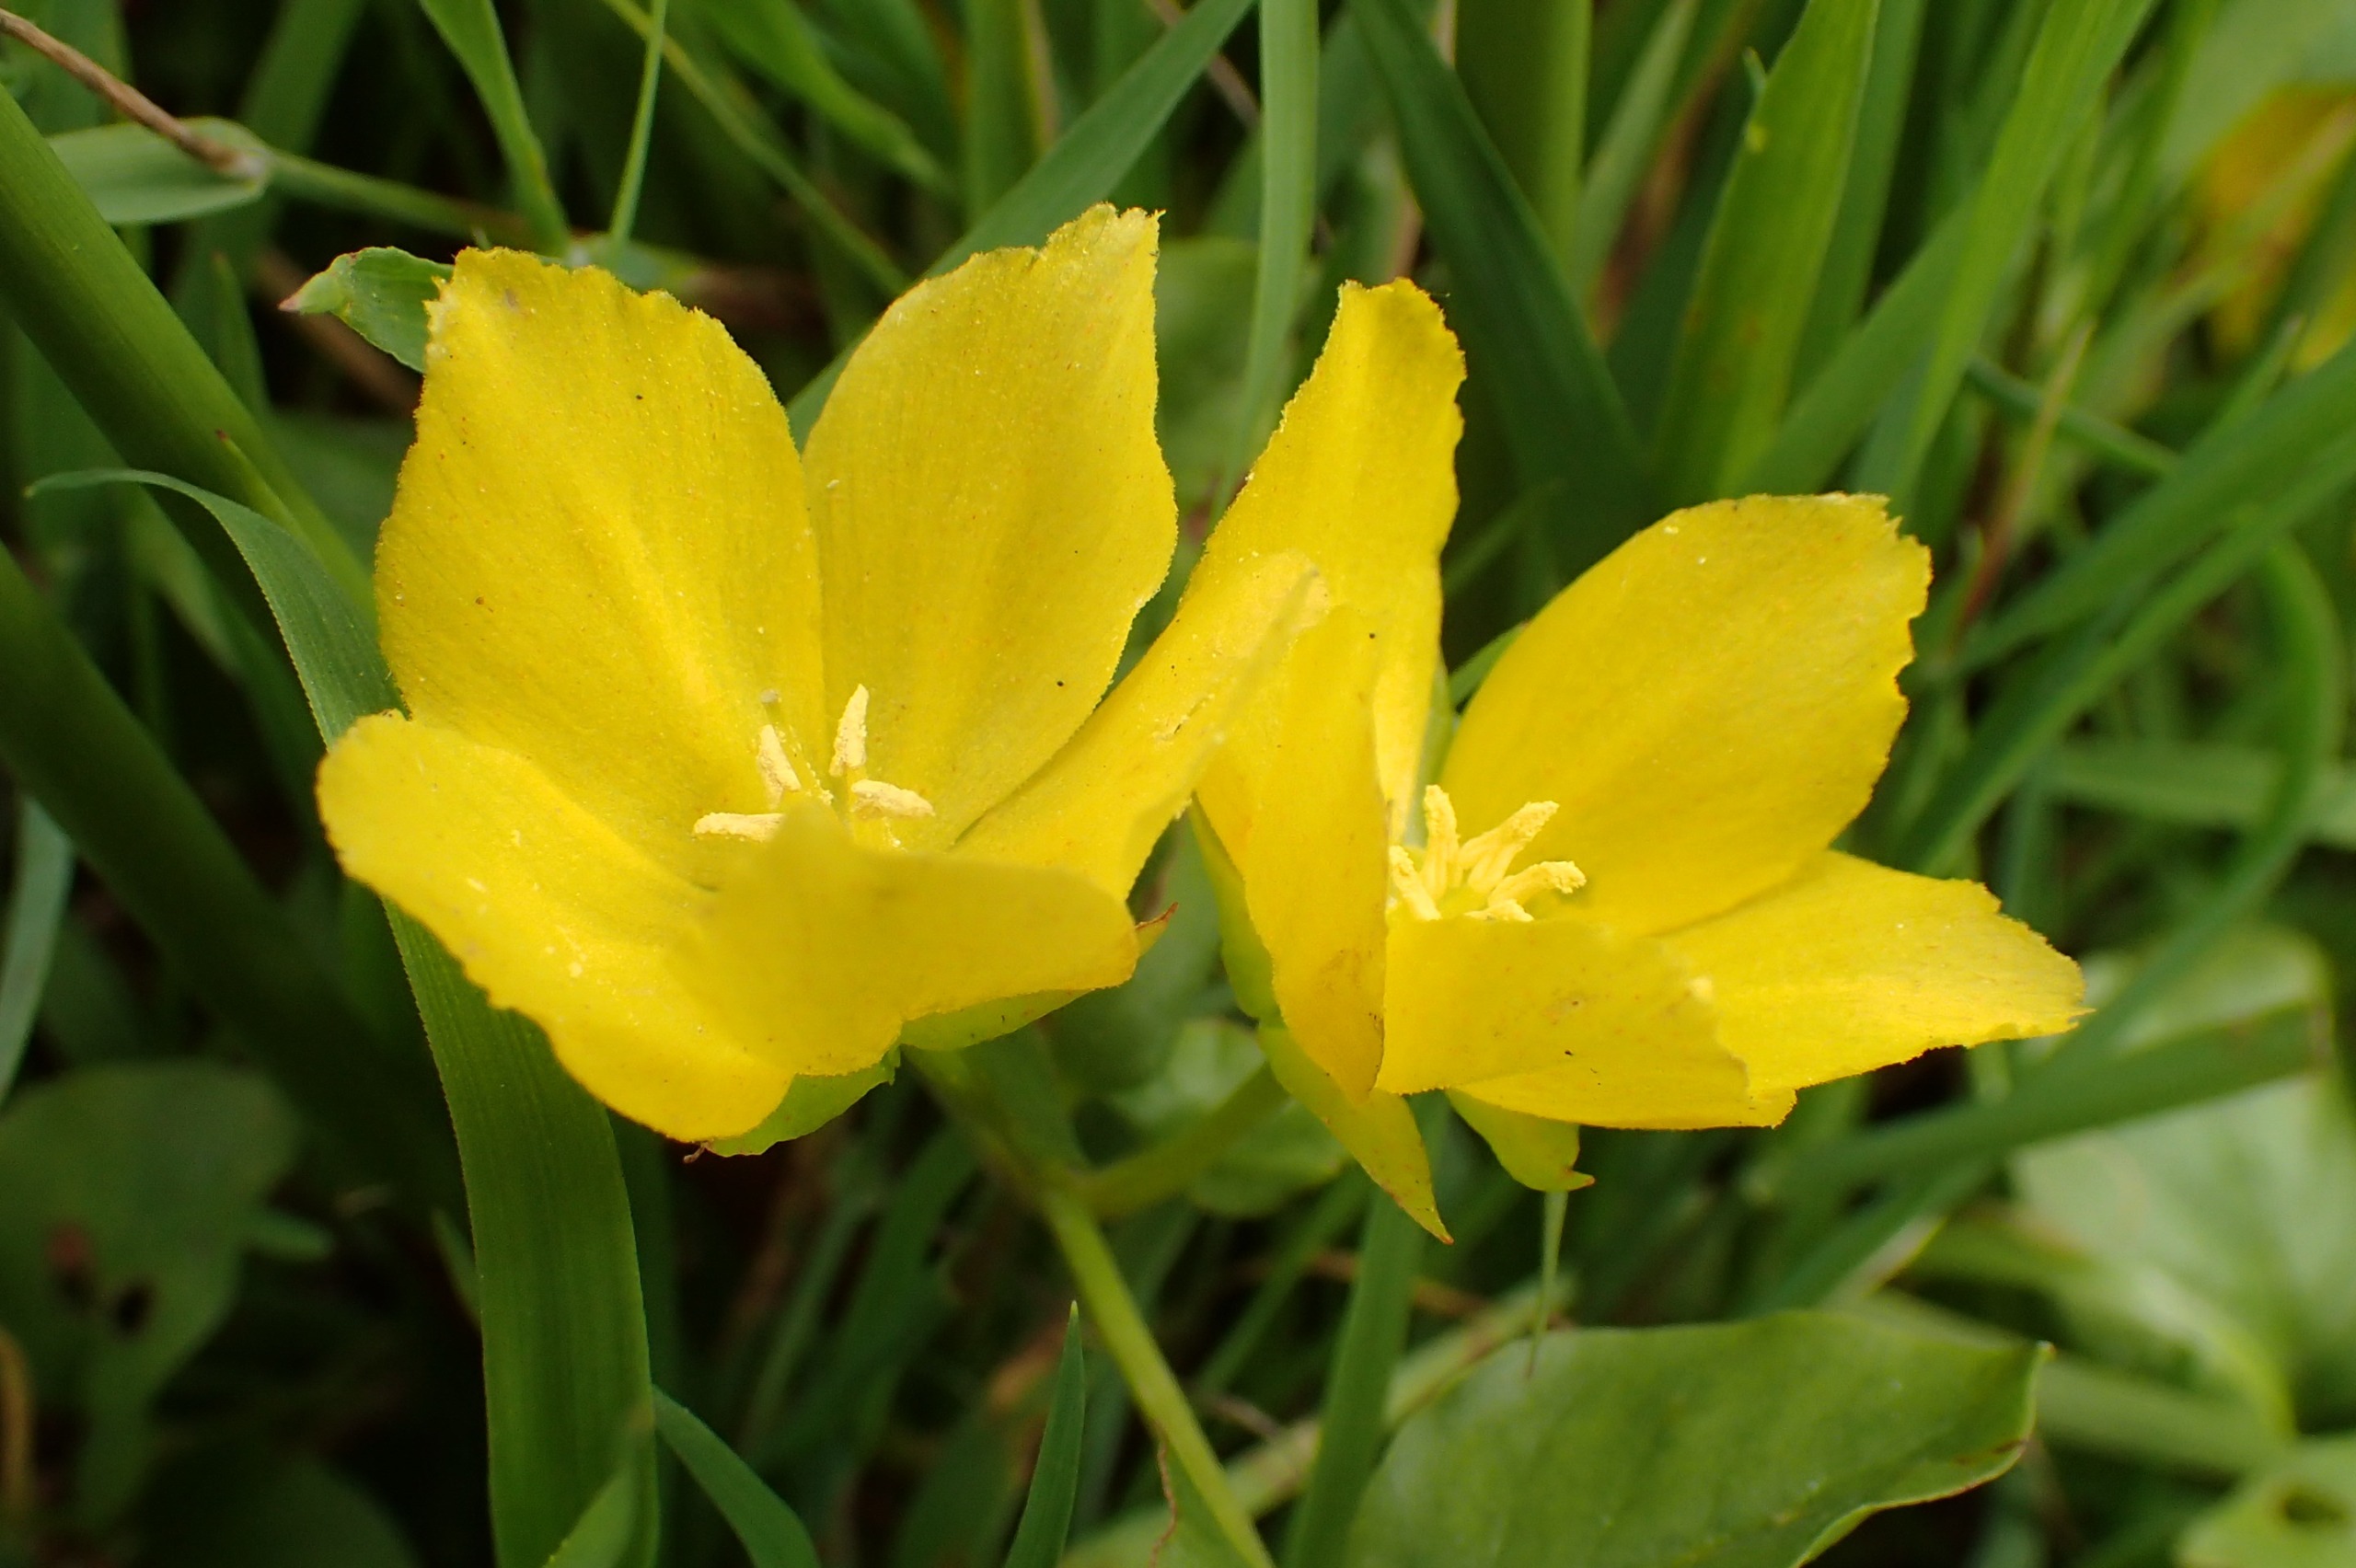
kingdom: Plantae
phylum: Tracheophyta
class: Magnoliopsida
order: Ericales
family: Primulaceae
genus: Lysimachia
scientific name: Lysimachia nummularia
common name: Pengebladet fredløs
